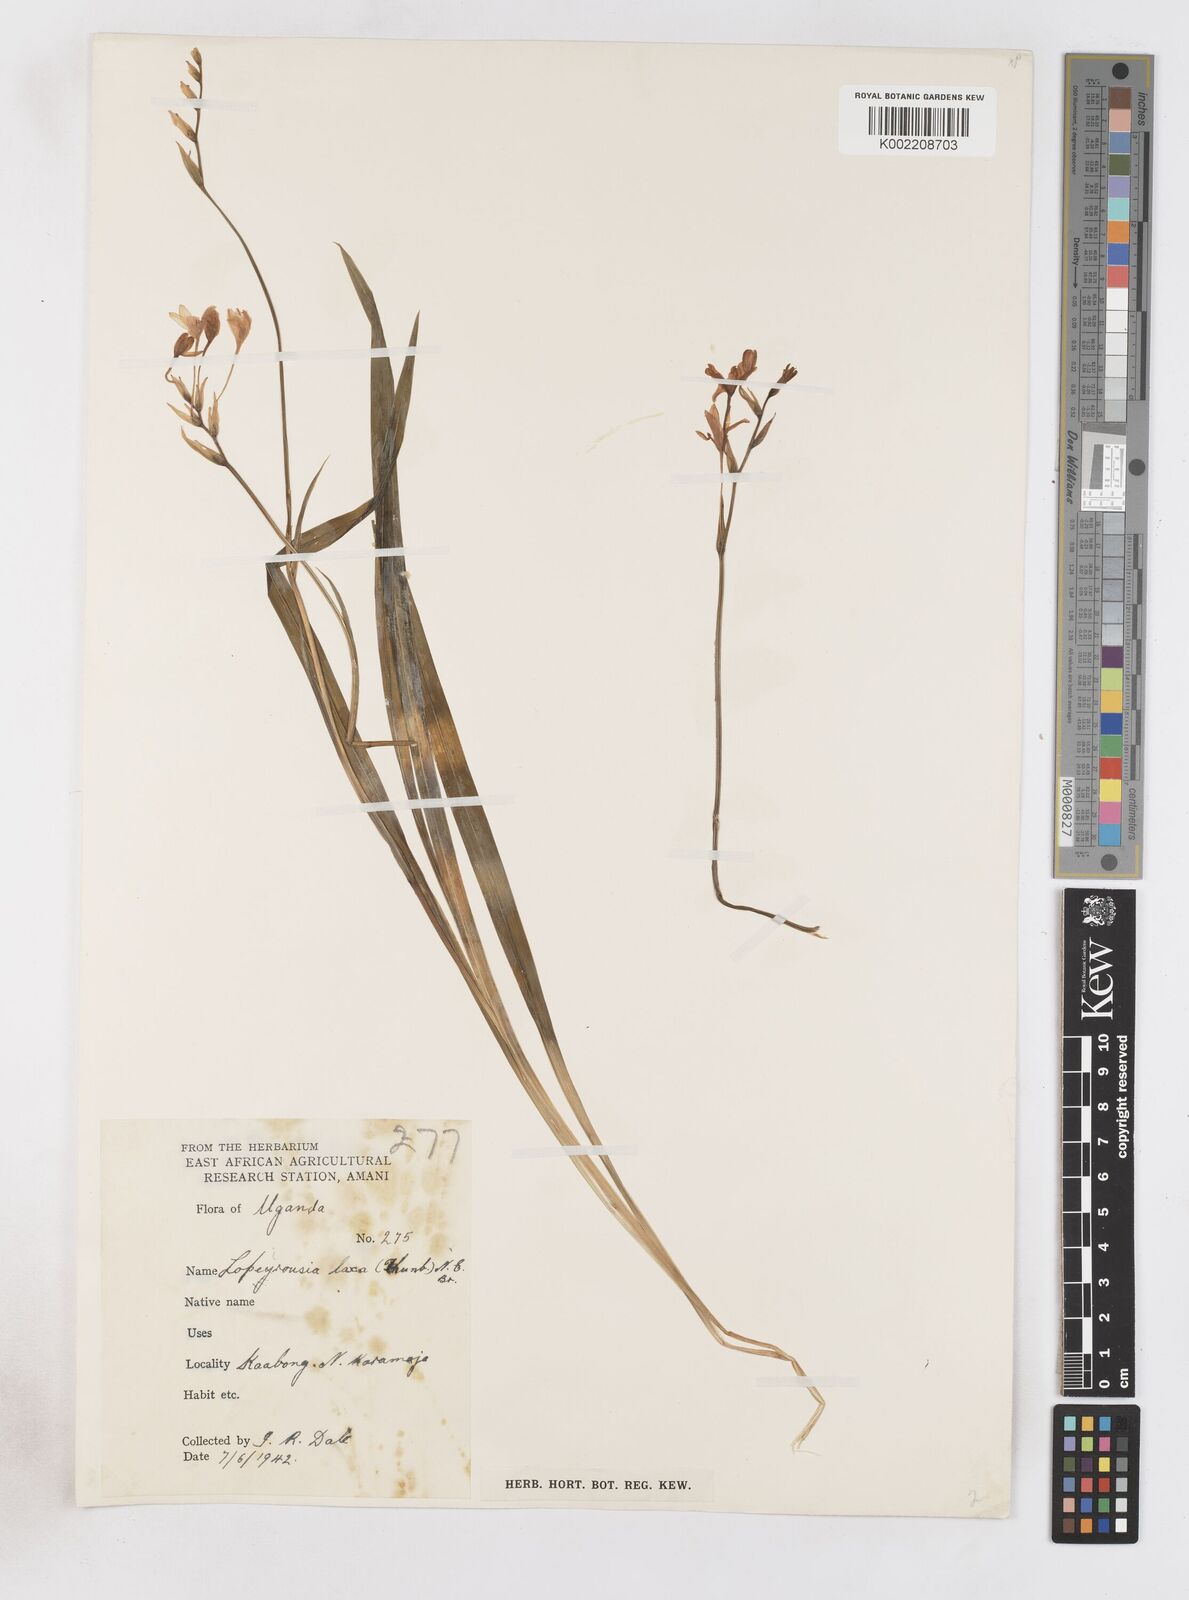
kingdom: Plantae
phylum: Tracheophyta
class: Liliopsida
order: Asparagales
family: Iridaceae
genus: Freesia
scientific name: Freesia laxa
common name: False freesia
